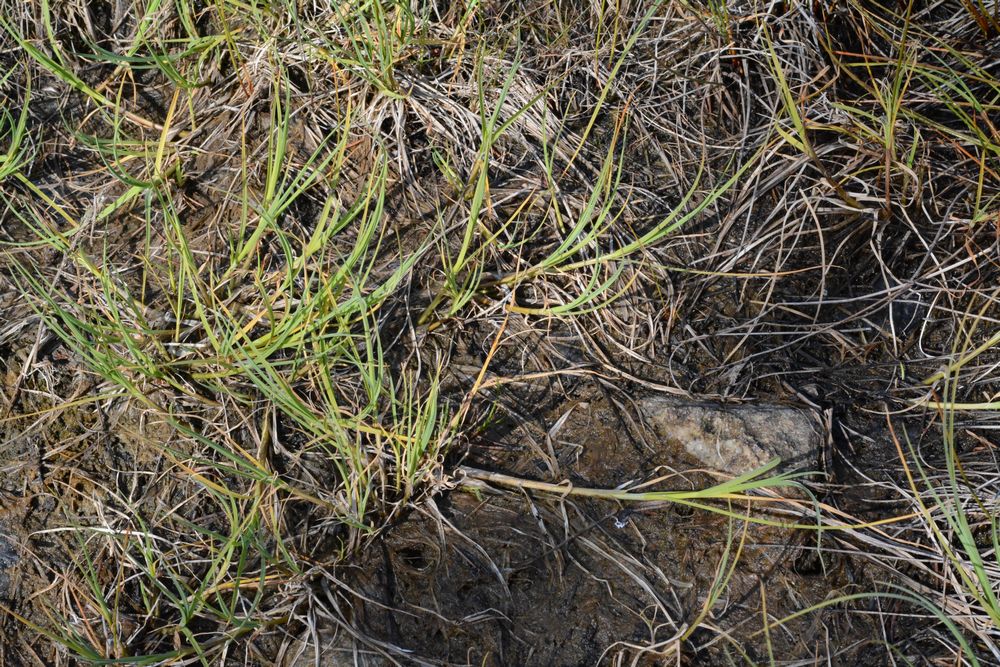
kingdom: Plantae
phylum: Tracheophyta
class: Liliopsida
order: Poales
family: Cyperaceae
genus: Carex
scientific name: Carex mackenziei
